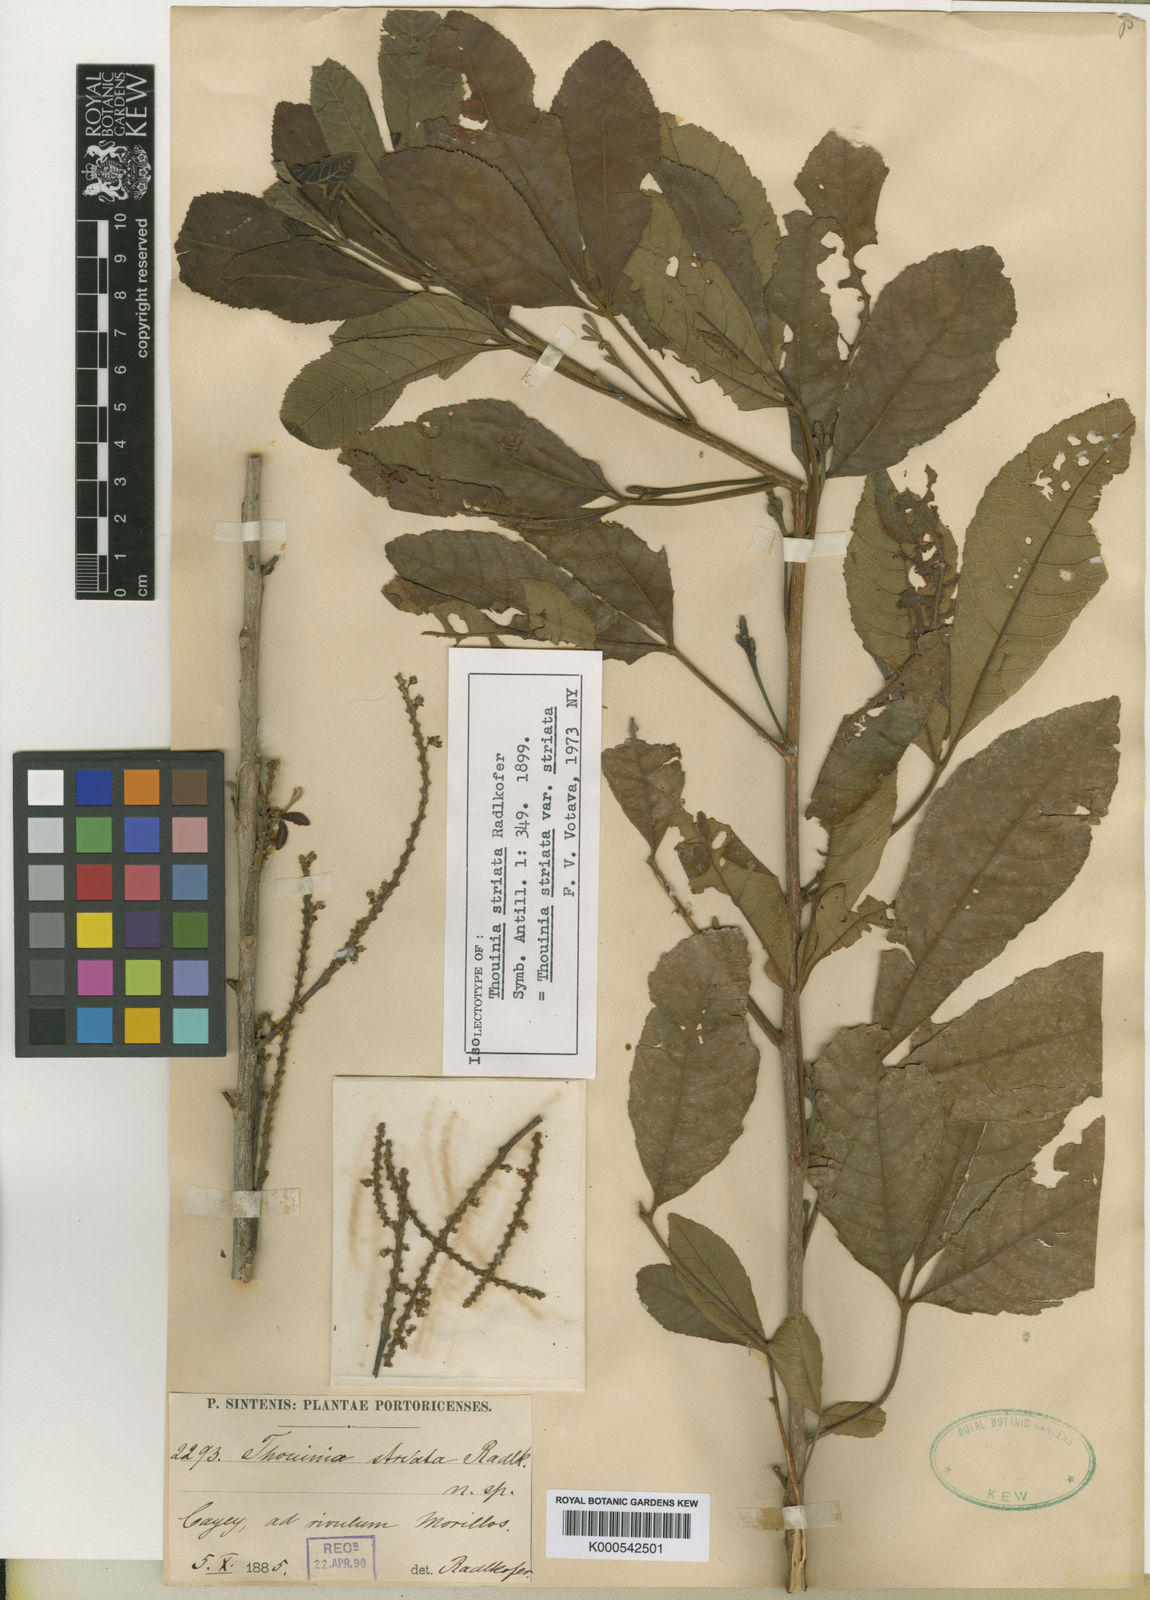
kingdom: Plantae
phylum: Tracheophyta
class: Magnoliopsida
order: Sapindales
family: Sapindaceae
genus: Thouinia
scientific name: Thouinia striata
